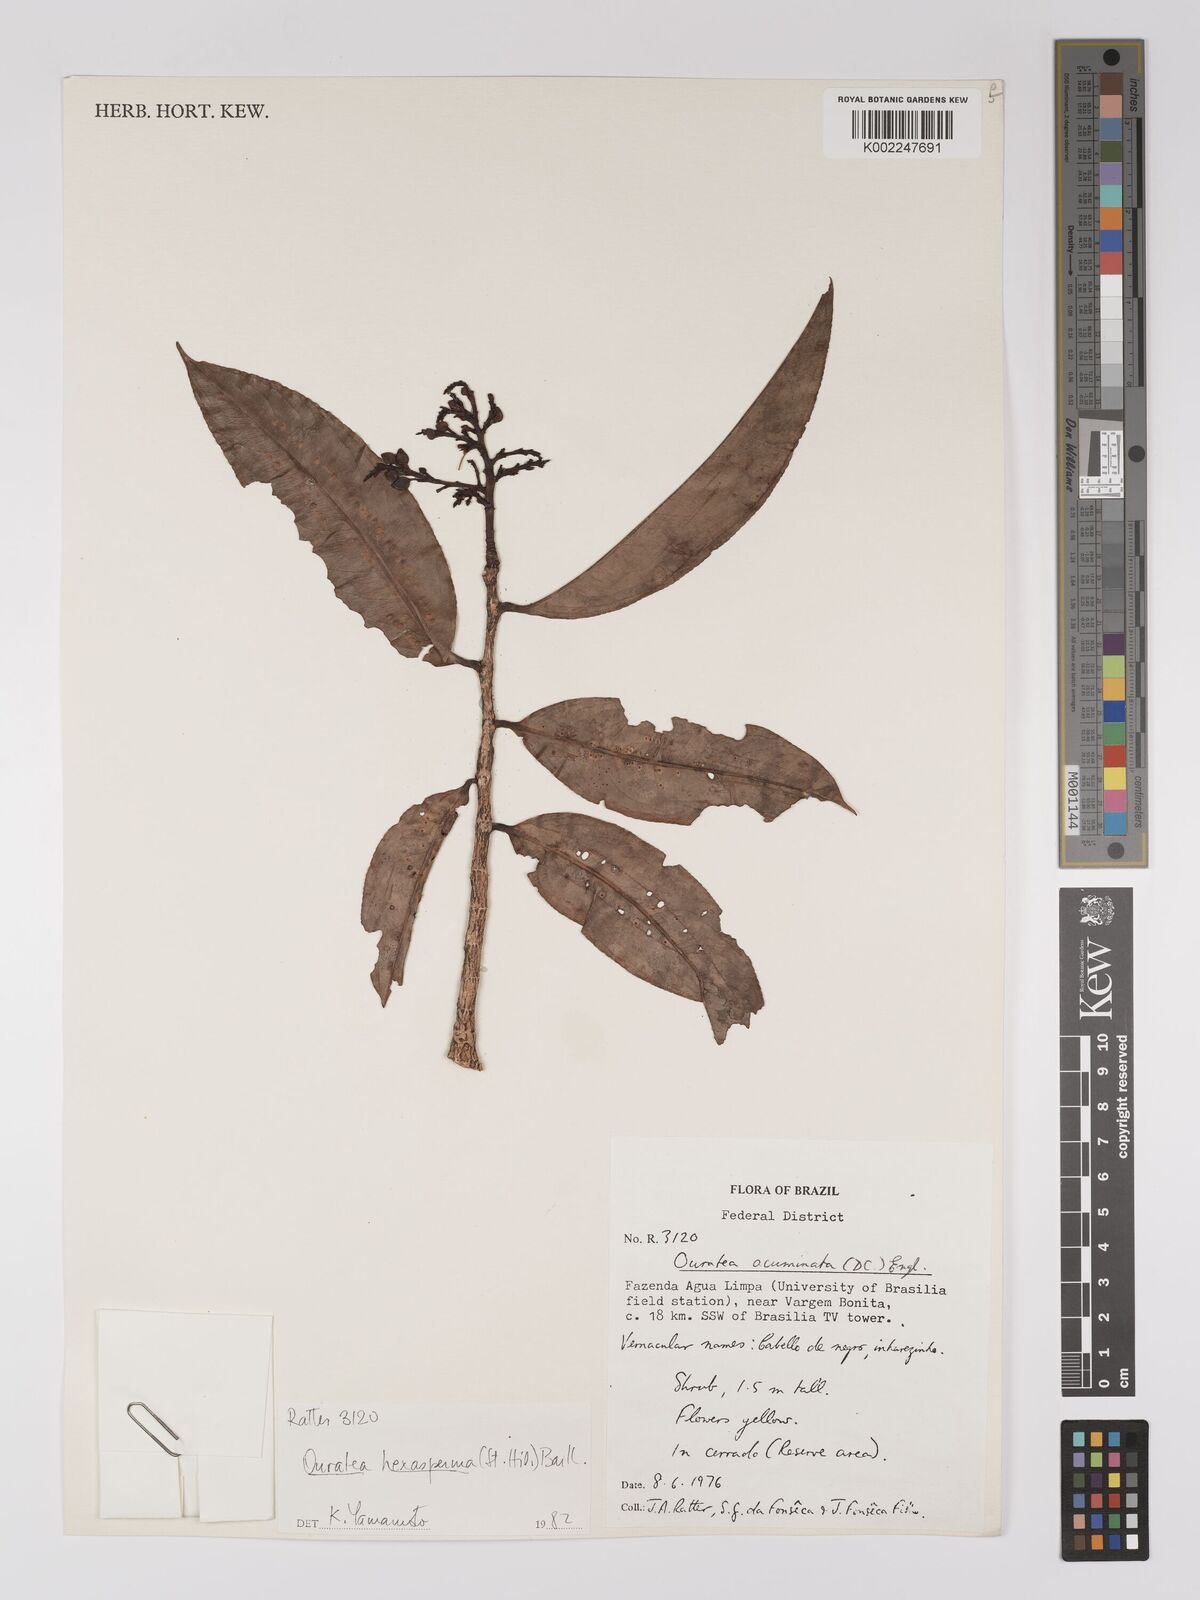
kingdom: Plantae
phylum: Tracheophyta
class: Magnoliopsida
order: Malpighiales
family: Ochnaceae
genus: Ouratea
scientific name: Ouratea hexasperma
